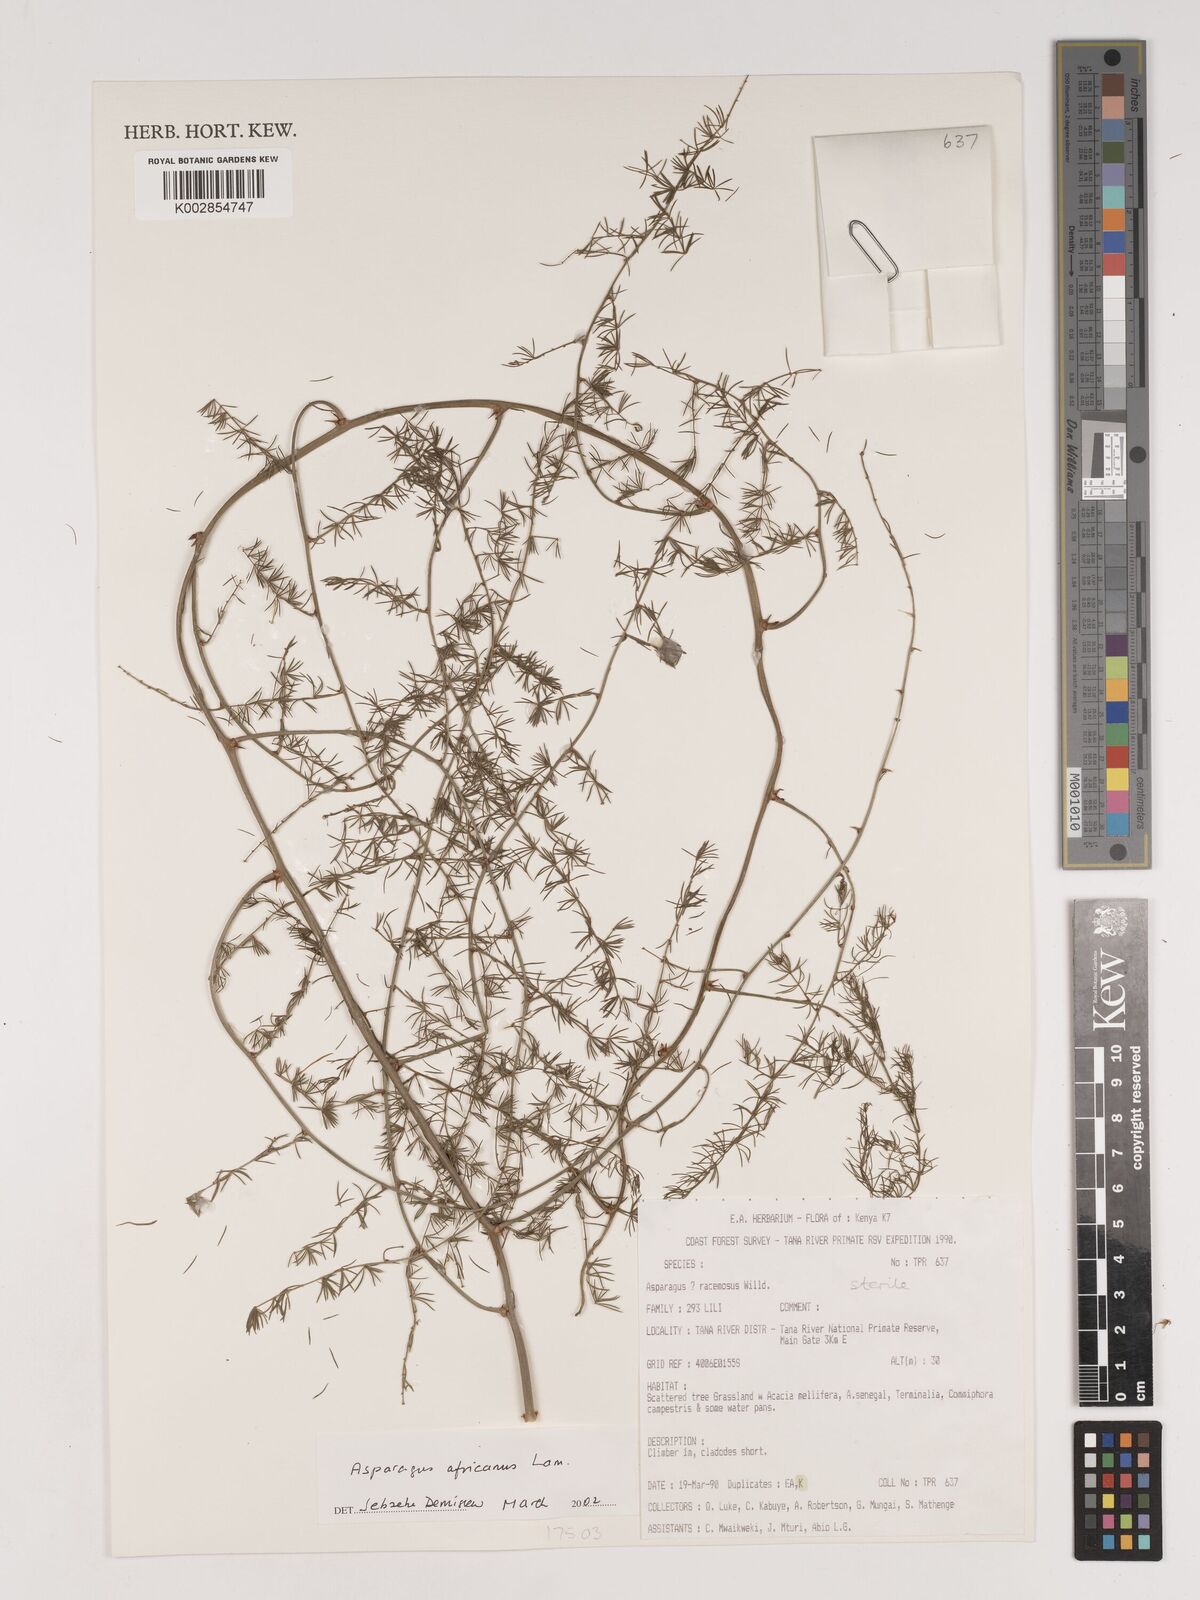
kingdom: Plantae
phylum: Tracheophyta
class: Liliopsida
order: Asparagales
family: Asparagaceae
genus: Asparagus
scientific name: Asparagus africanus
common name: Asparagus-fern
